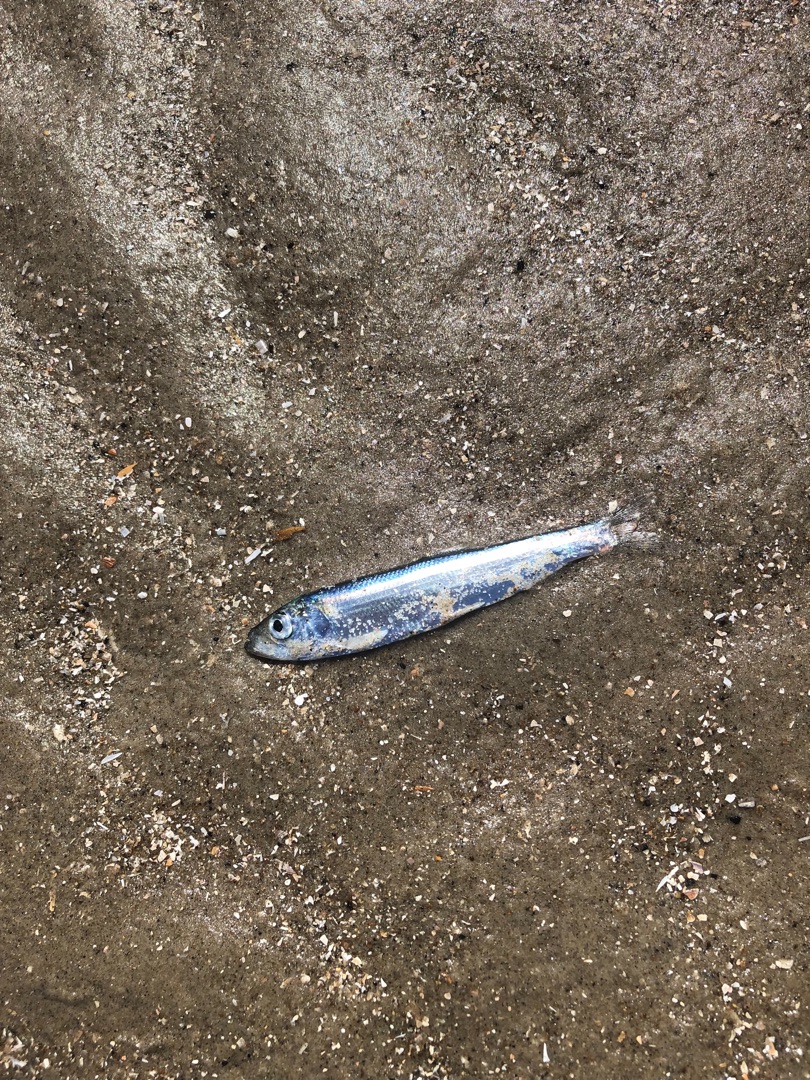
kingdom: Animalia
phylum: Chordata
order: Clupeiformes
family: Clupeidae
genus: Sprattus
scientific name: Sprattus sprattus
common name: Brisling
